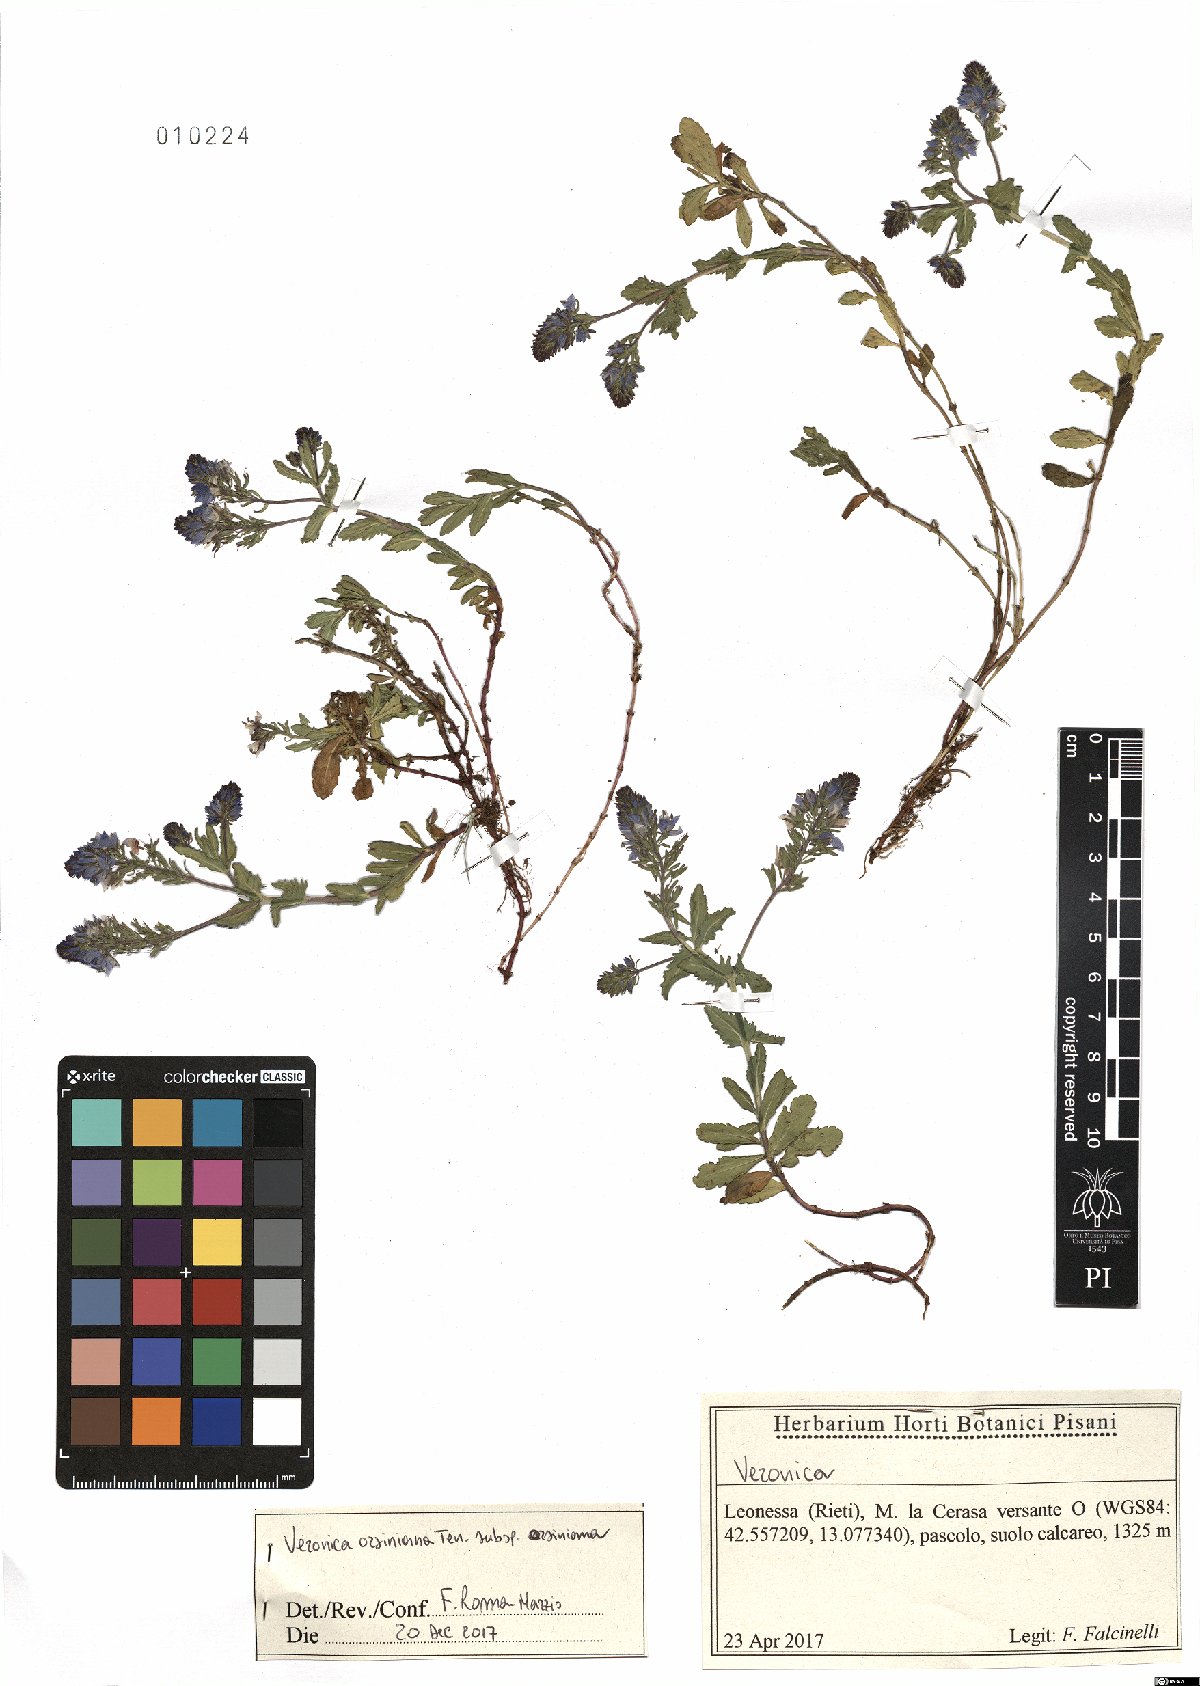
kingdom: Plantae
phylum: Tracheophyta
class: Magnoliopsida
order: Lamiales
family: Plantaginaceae
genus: Veronica
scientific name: Veronica orsiniana
